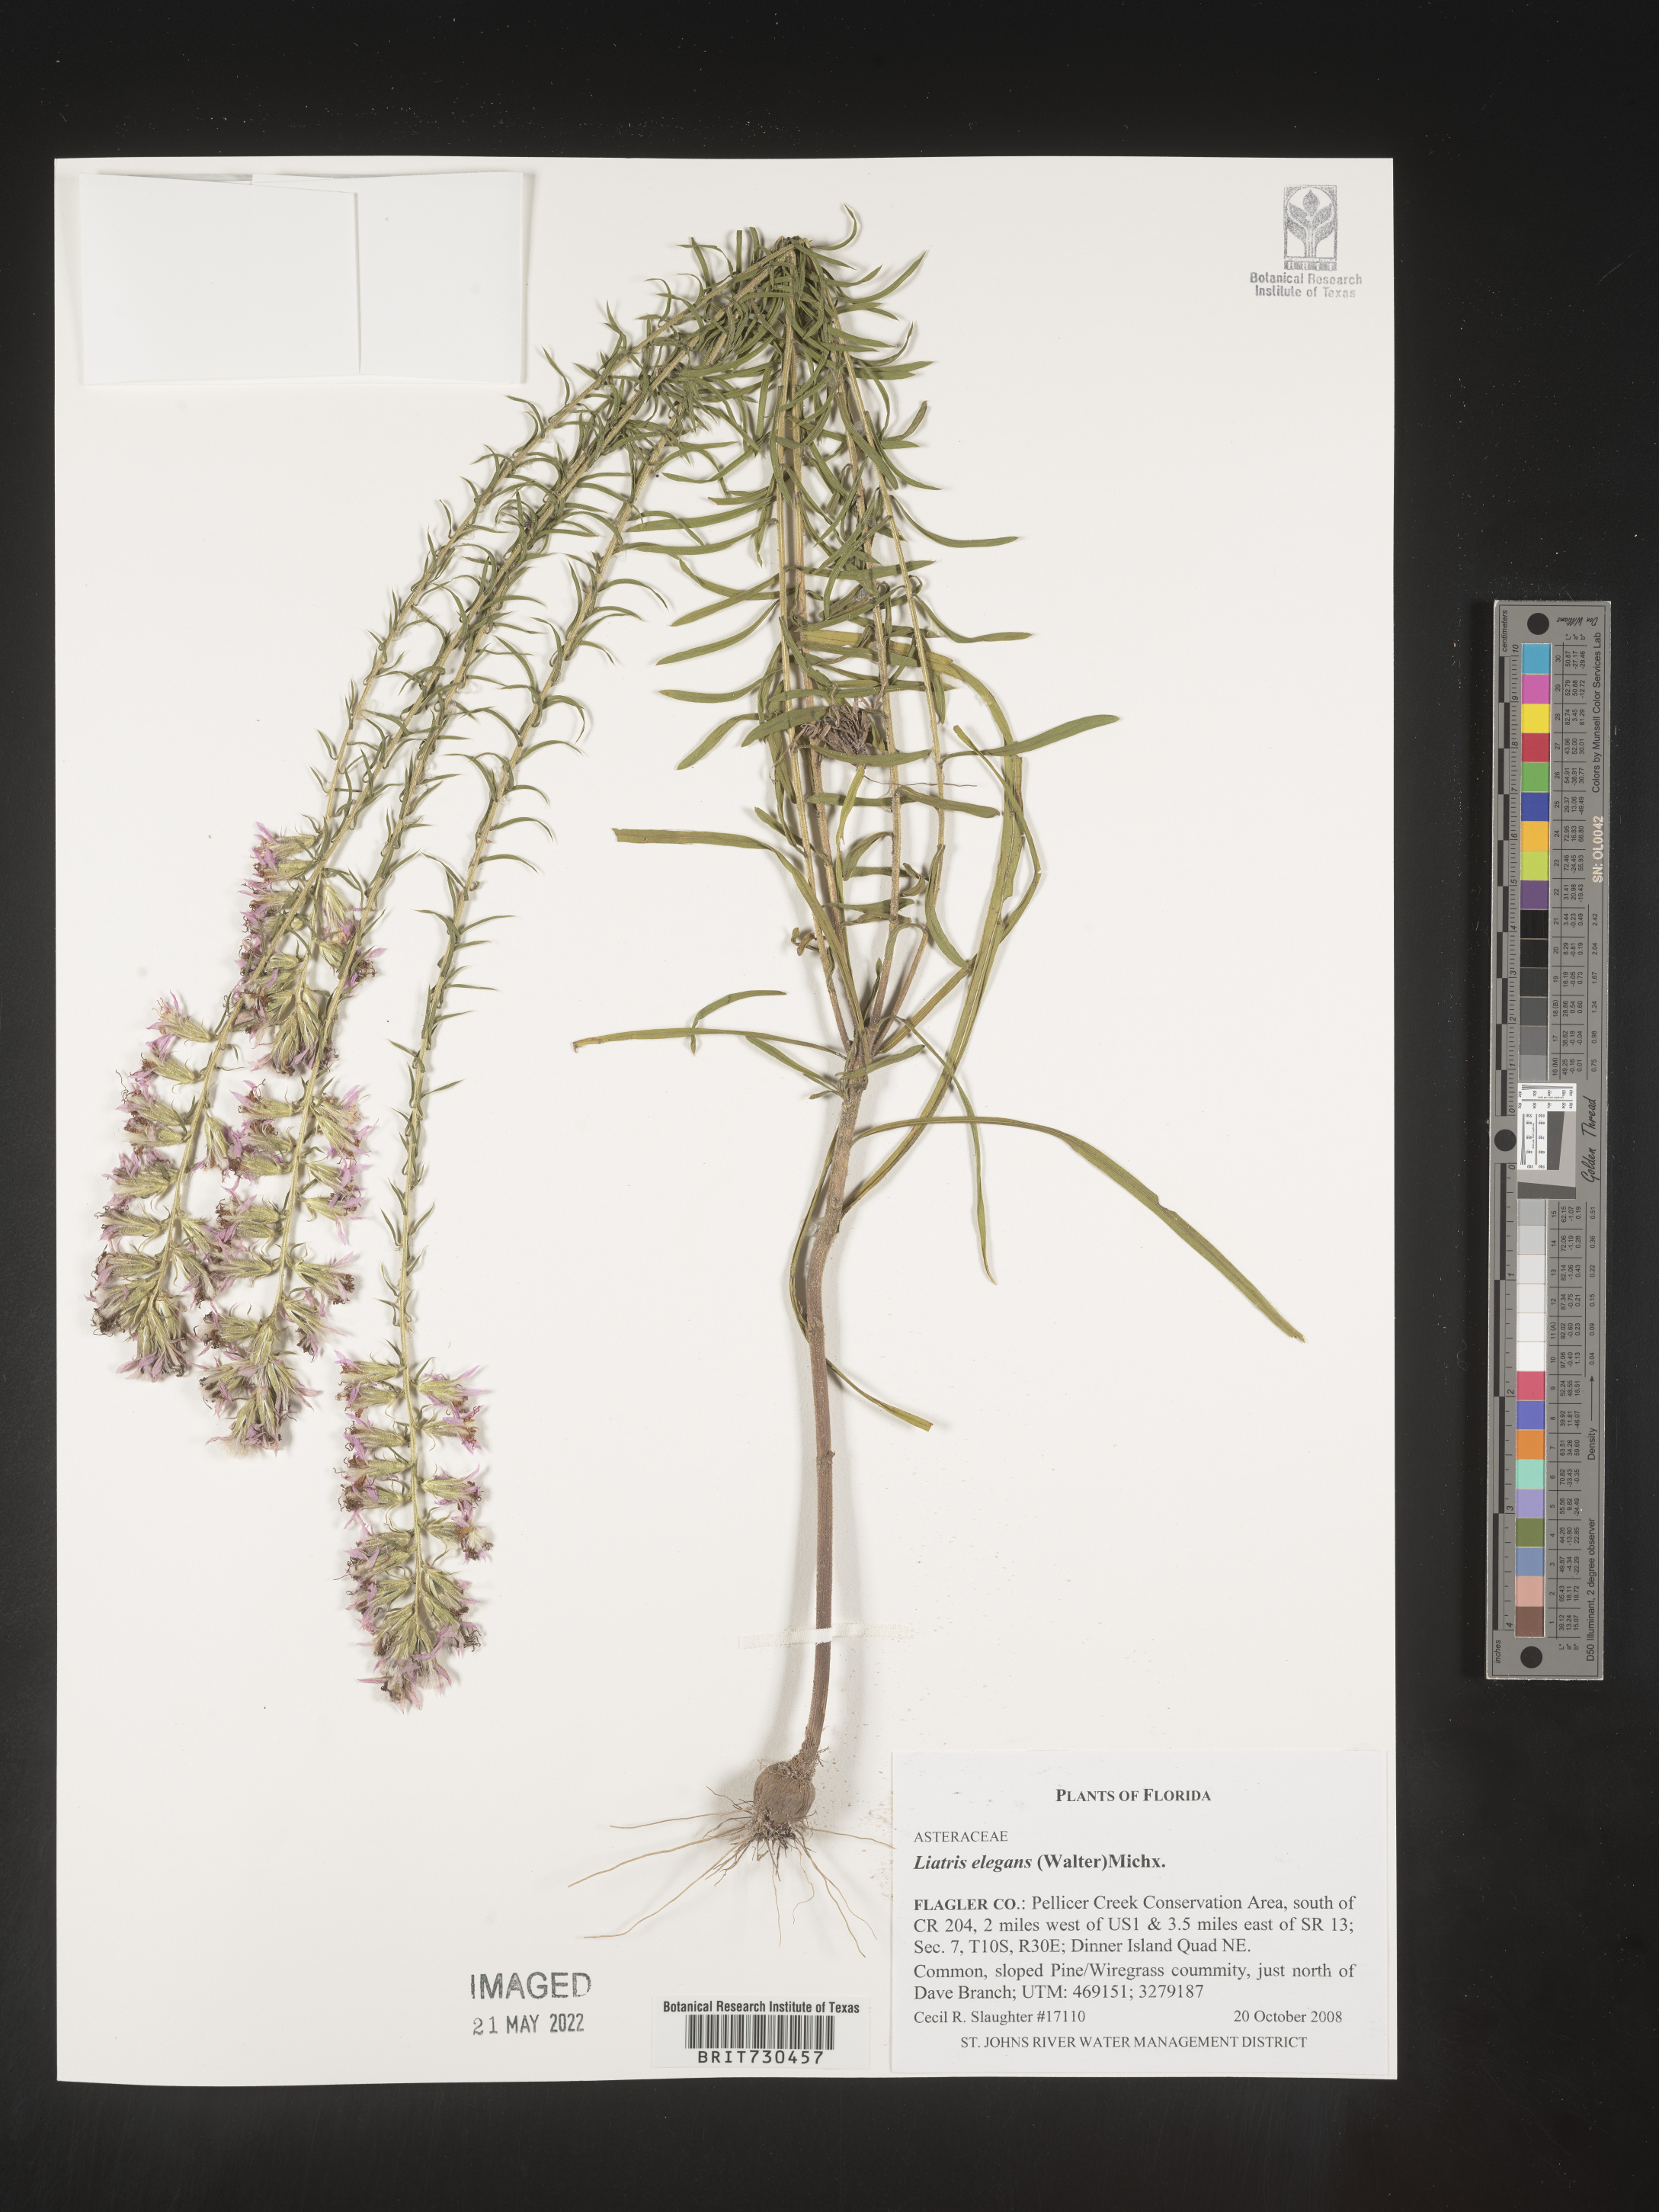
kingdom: Plantae
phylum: Tracheophyta
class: Magnoliopsida
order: Asterales
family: Asteraceae
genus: Liatris
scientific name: Liatris elegans
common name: Pinkscale gayfeather
